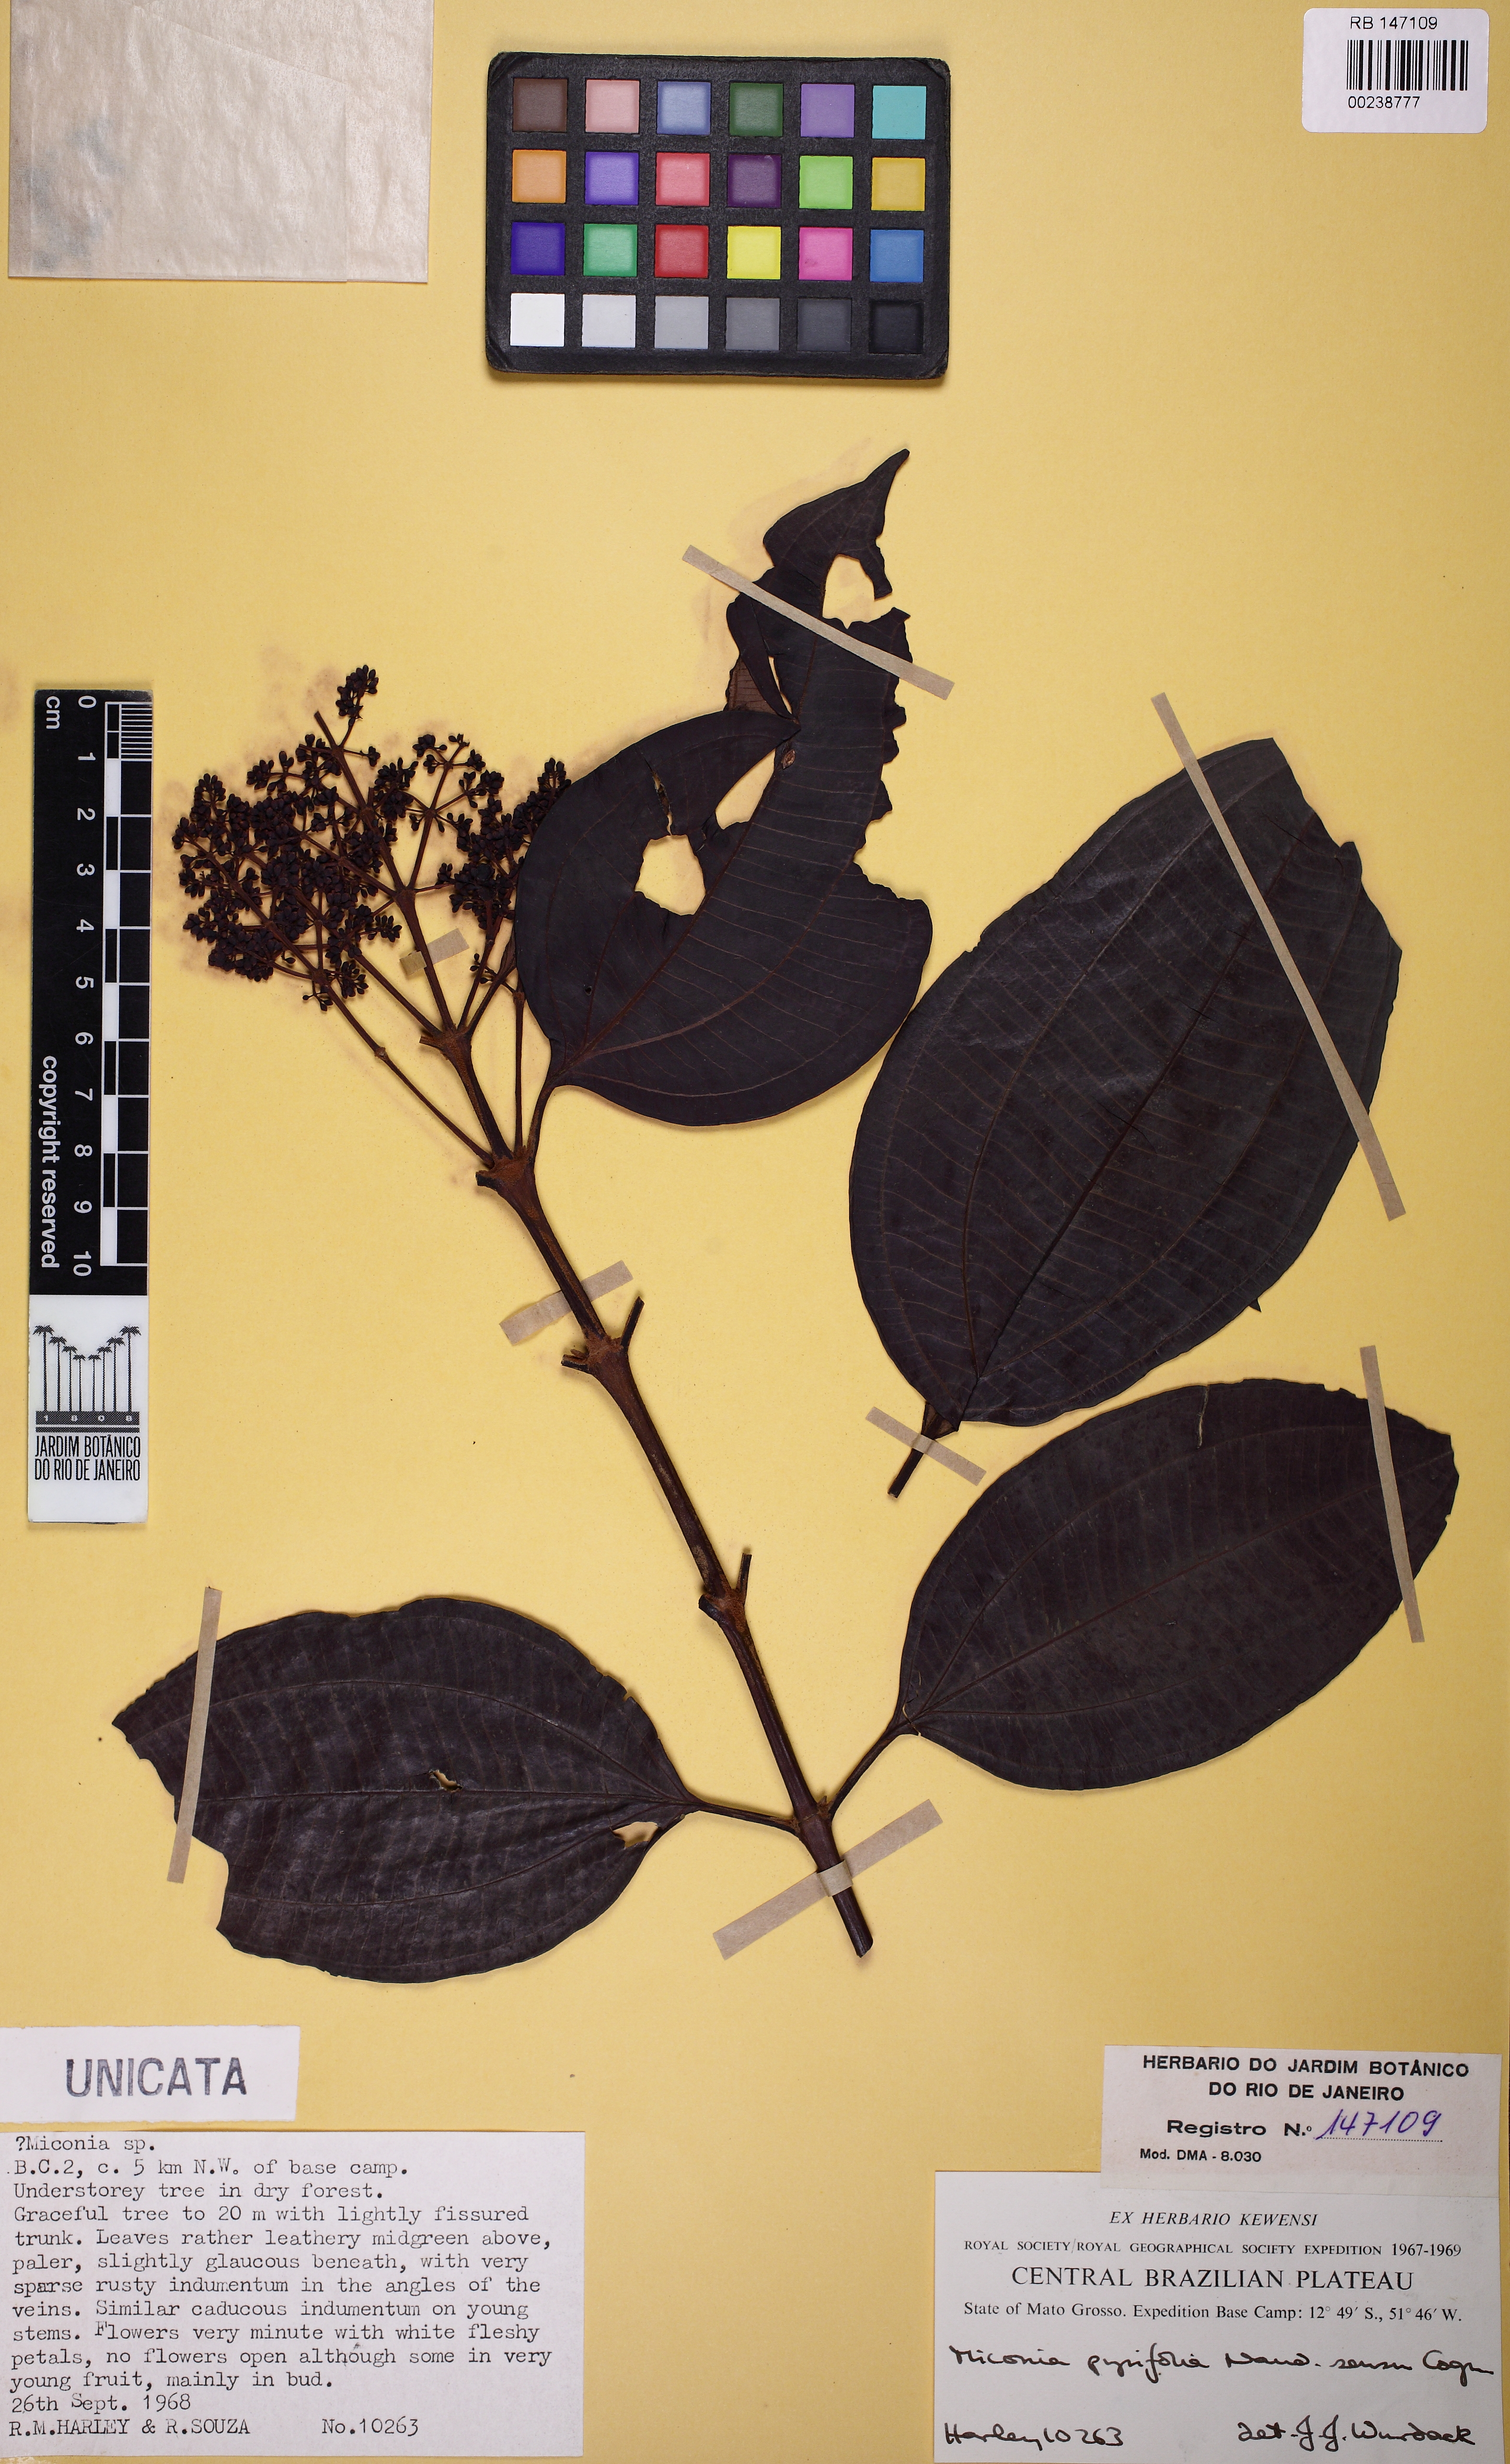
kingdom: Plantae
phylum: Tracheophyta
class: Magnoliopsida
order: Myrtales
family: Melastomataceae
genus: Miconia
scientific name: Miconia pyrifolia
